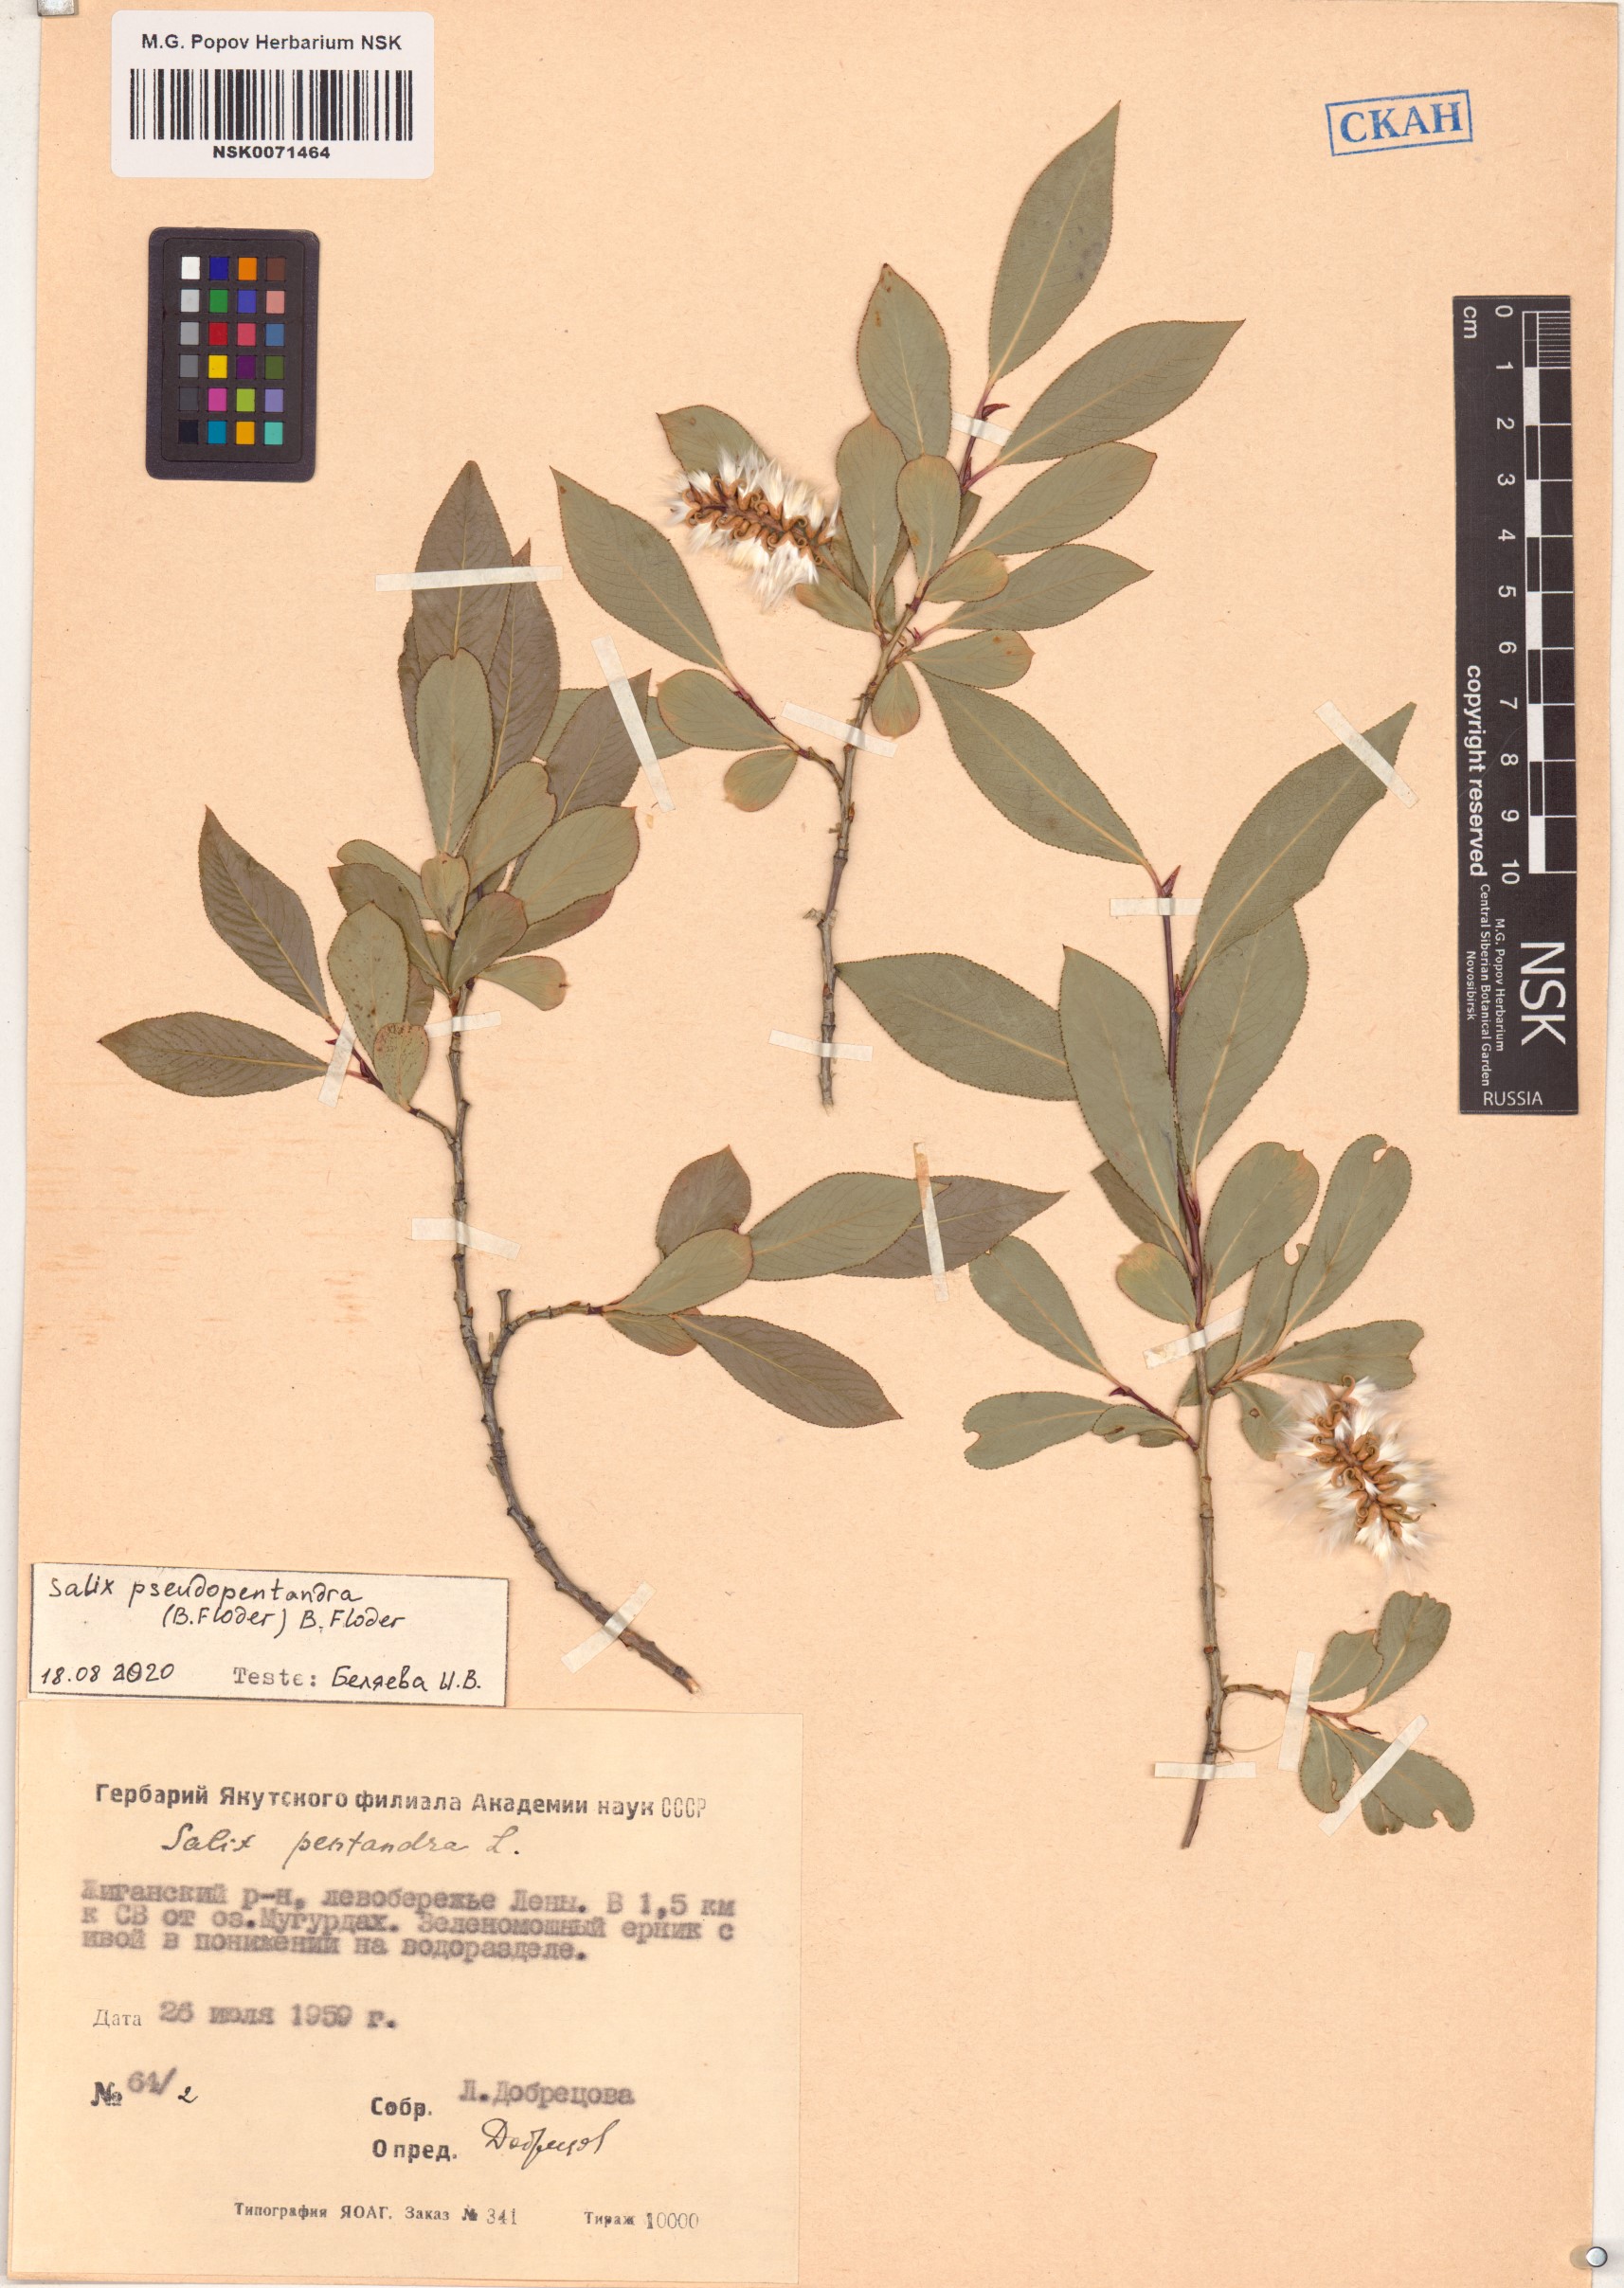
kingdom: Plantae
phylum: Tracheophyta
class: Magnoliopsida
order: Malpighiales
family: Salicaceae
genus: Salix
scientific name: Salix pseudopentandra
